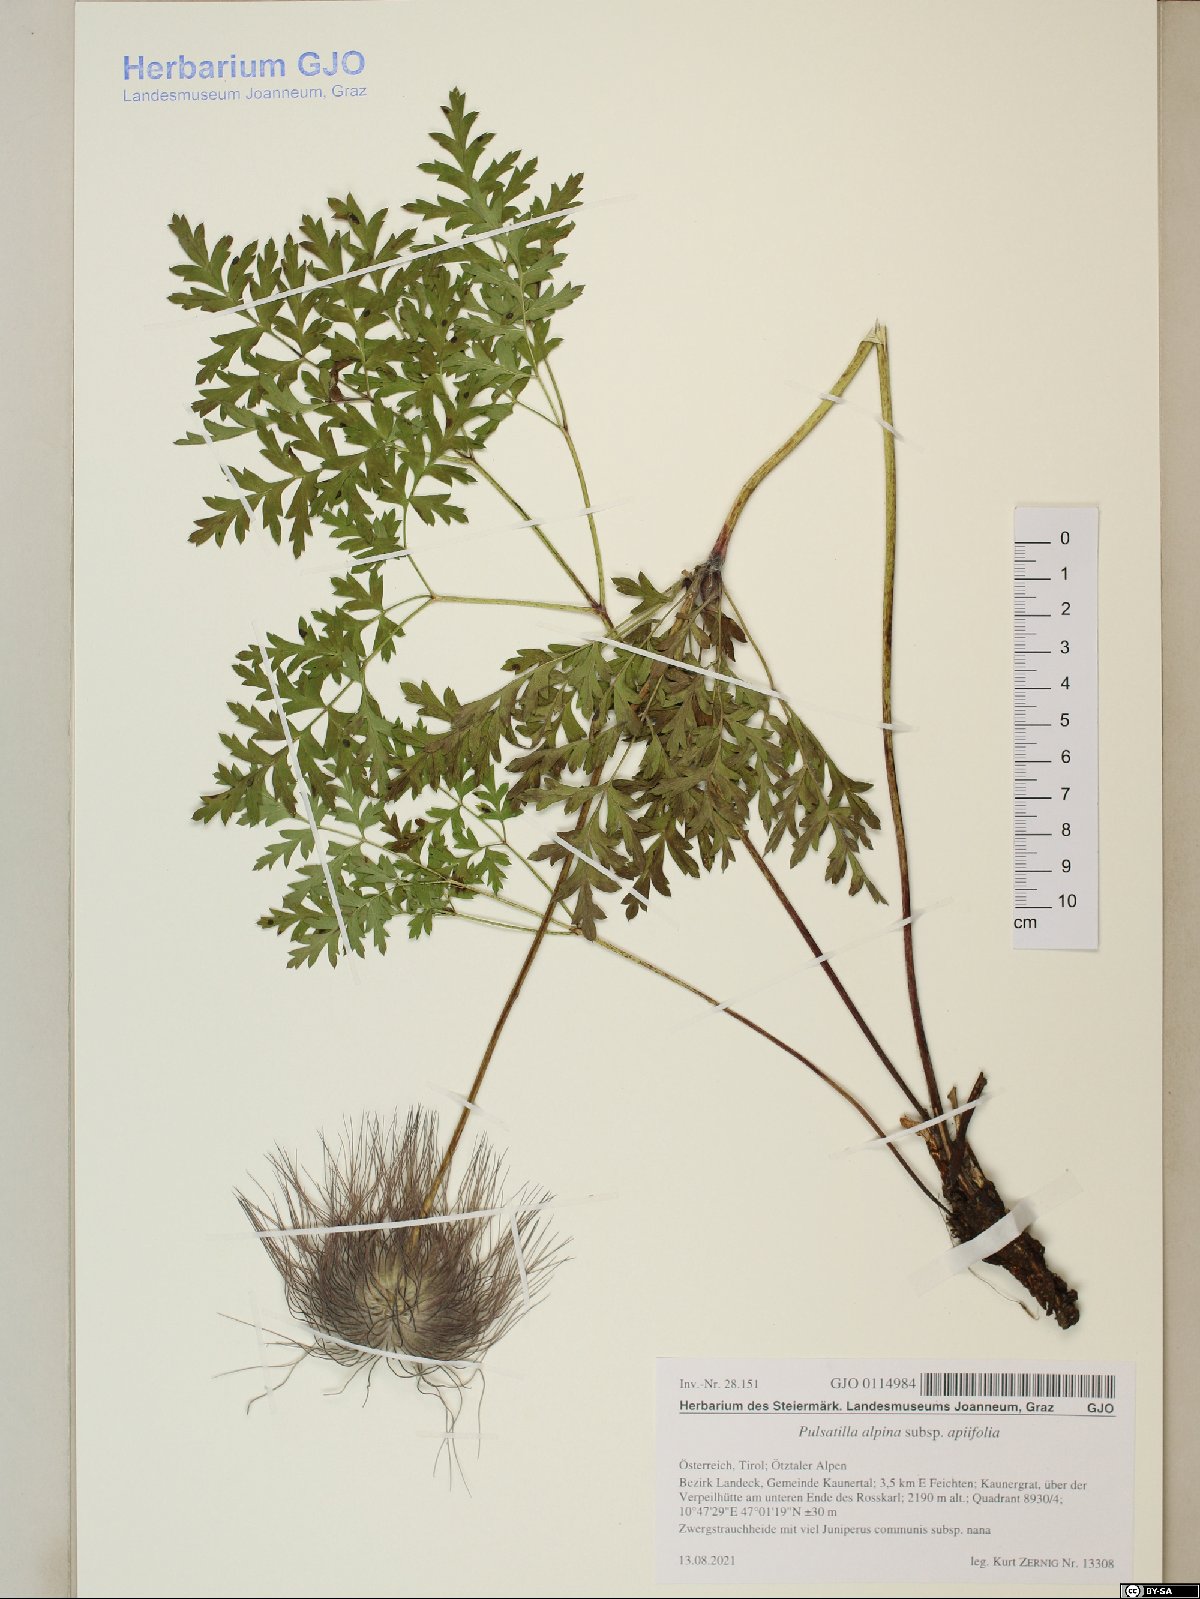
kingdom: Plantae
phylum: Tracheophyta
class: Magnoliopsida
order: Ranunculales
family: Ranunculaceae
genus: Pulsatilla
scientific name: Pulsatilla alpina
